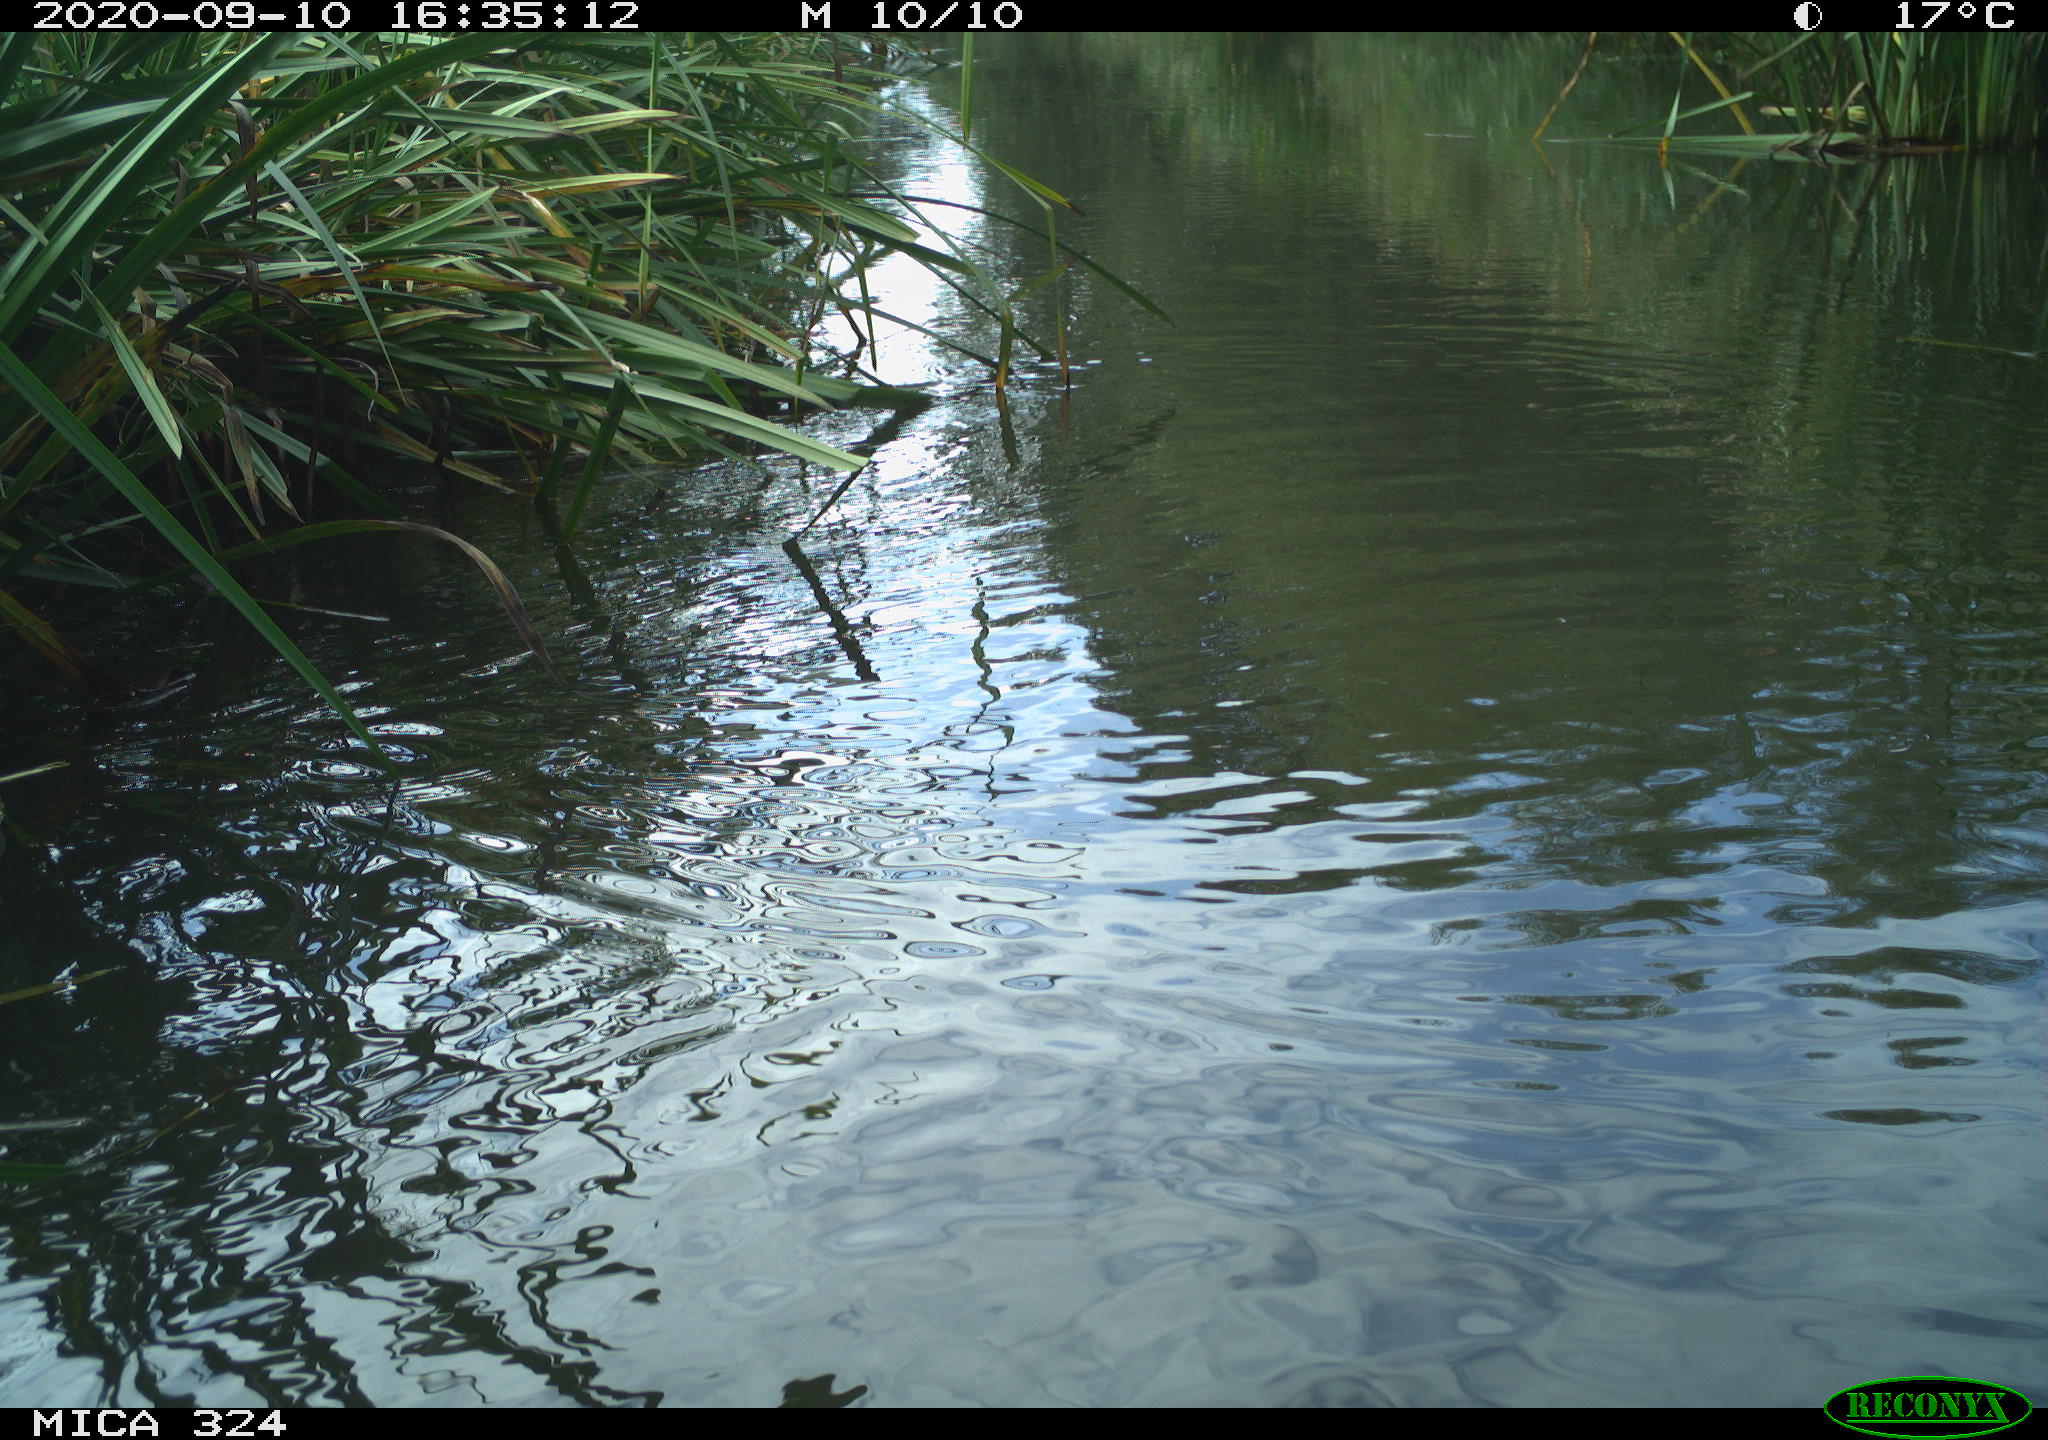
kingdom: Animalia
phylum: Chordata
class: Mammalia
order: Rodentia
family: Cricetidae
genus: Ondatra
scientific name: Ondatra zibethicus
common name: Muskrat
